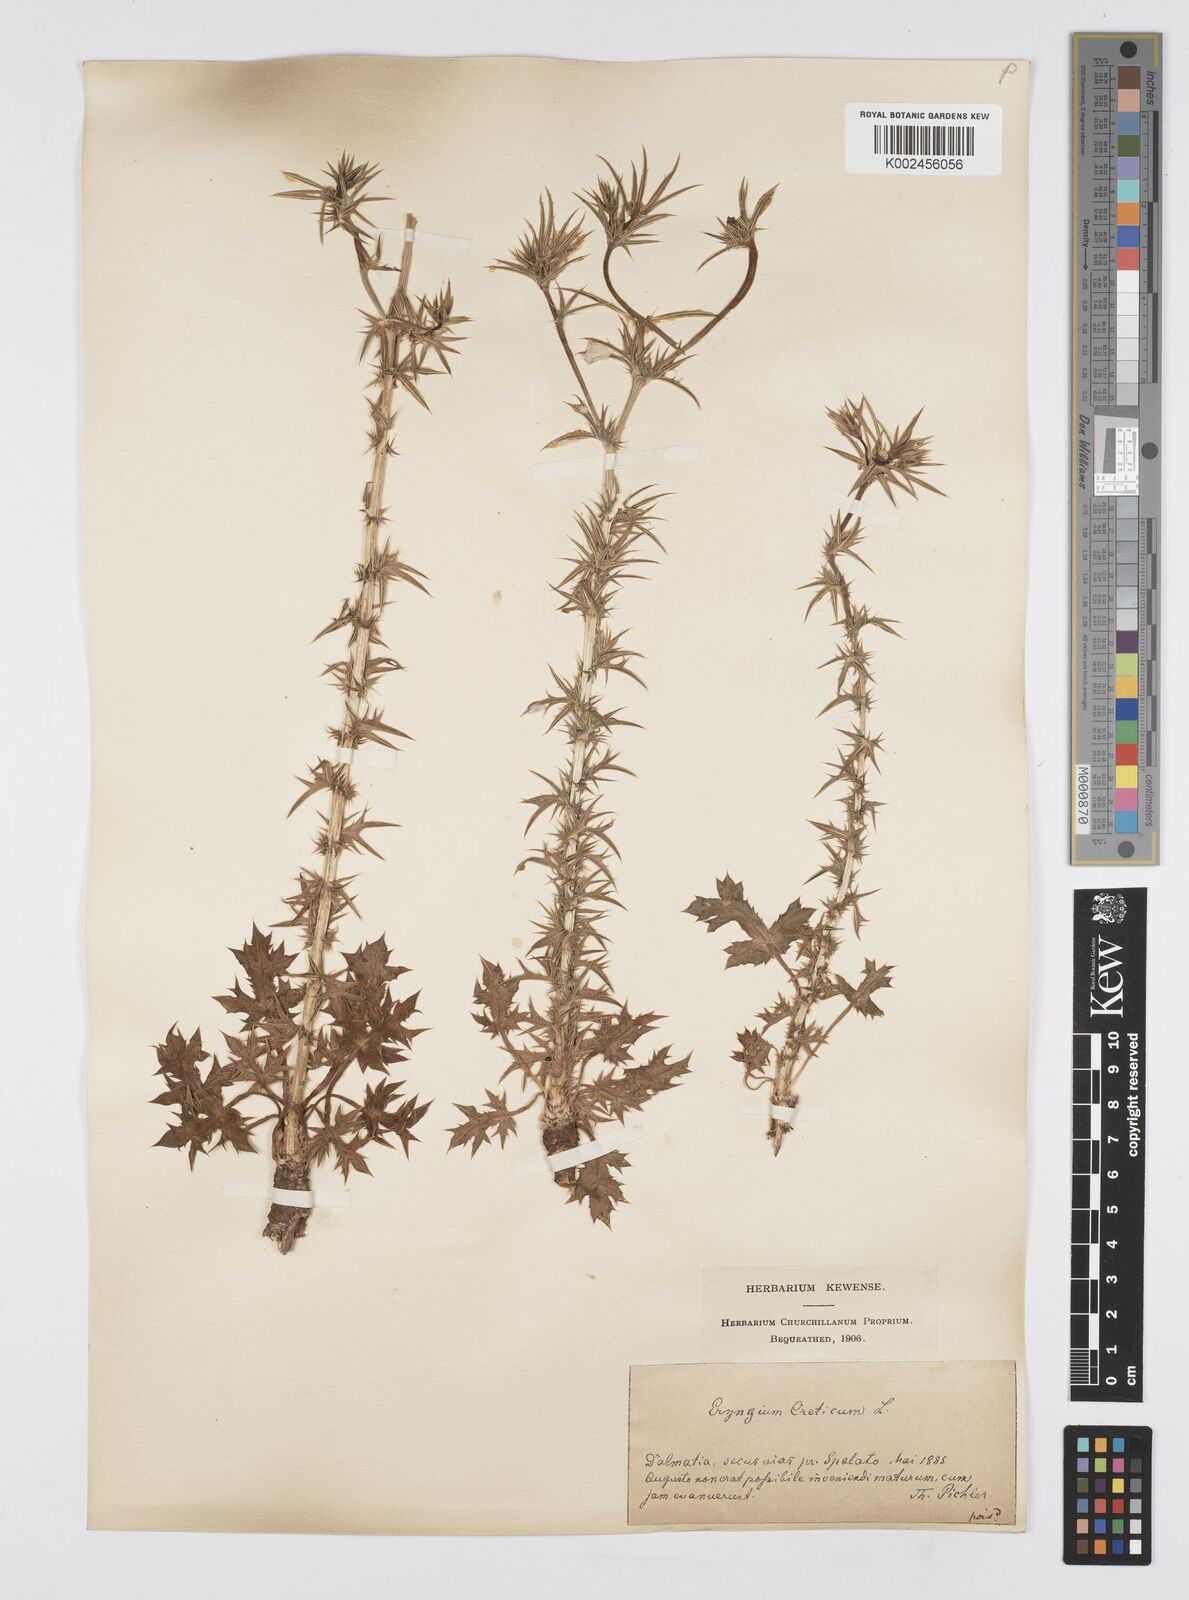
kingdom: Plantae
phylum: Tracheophyta
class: Magnoliopsida
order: Apiales
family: Apiaceae
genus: Eryngium
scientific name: Eryngium creticum
